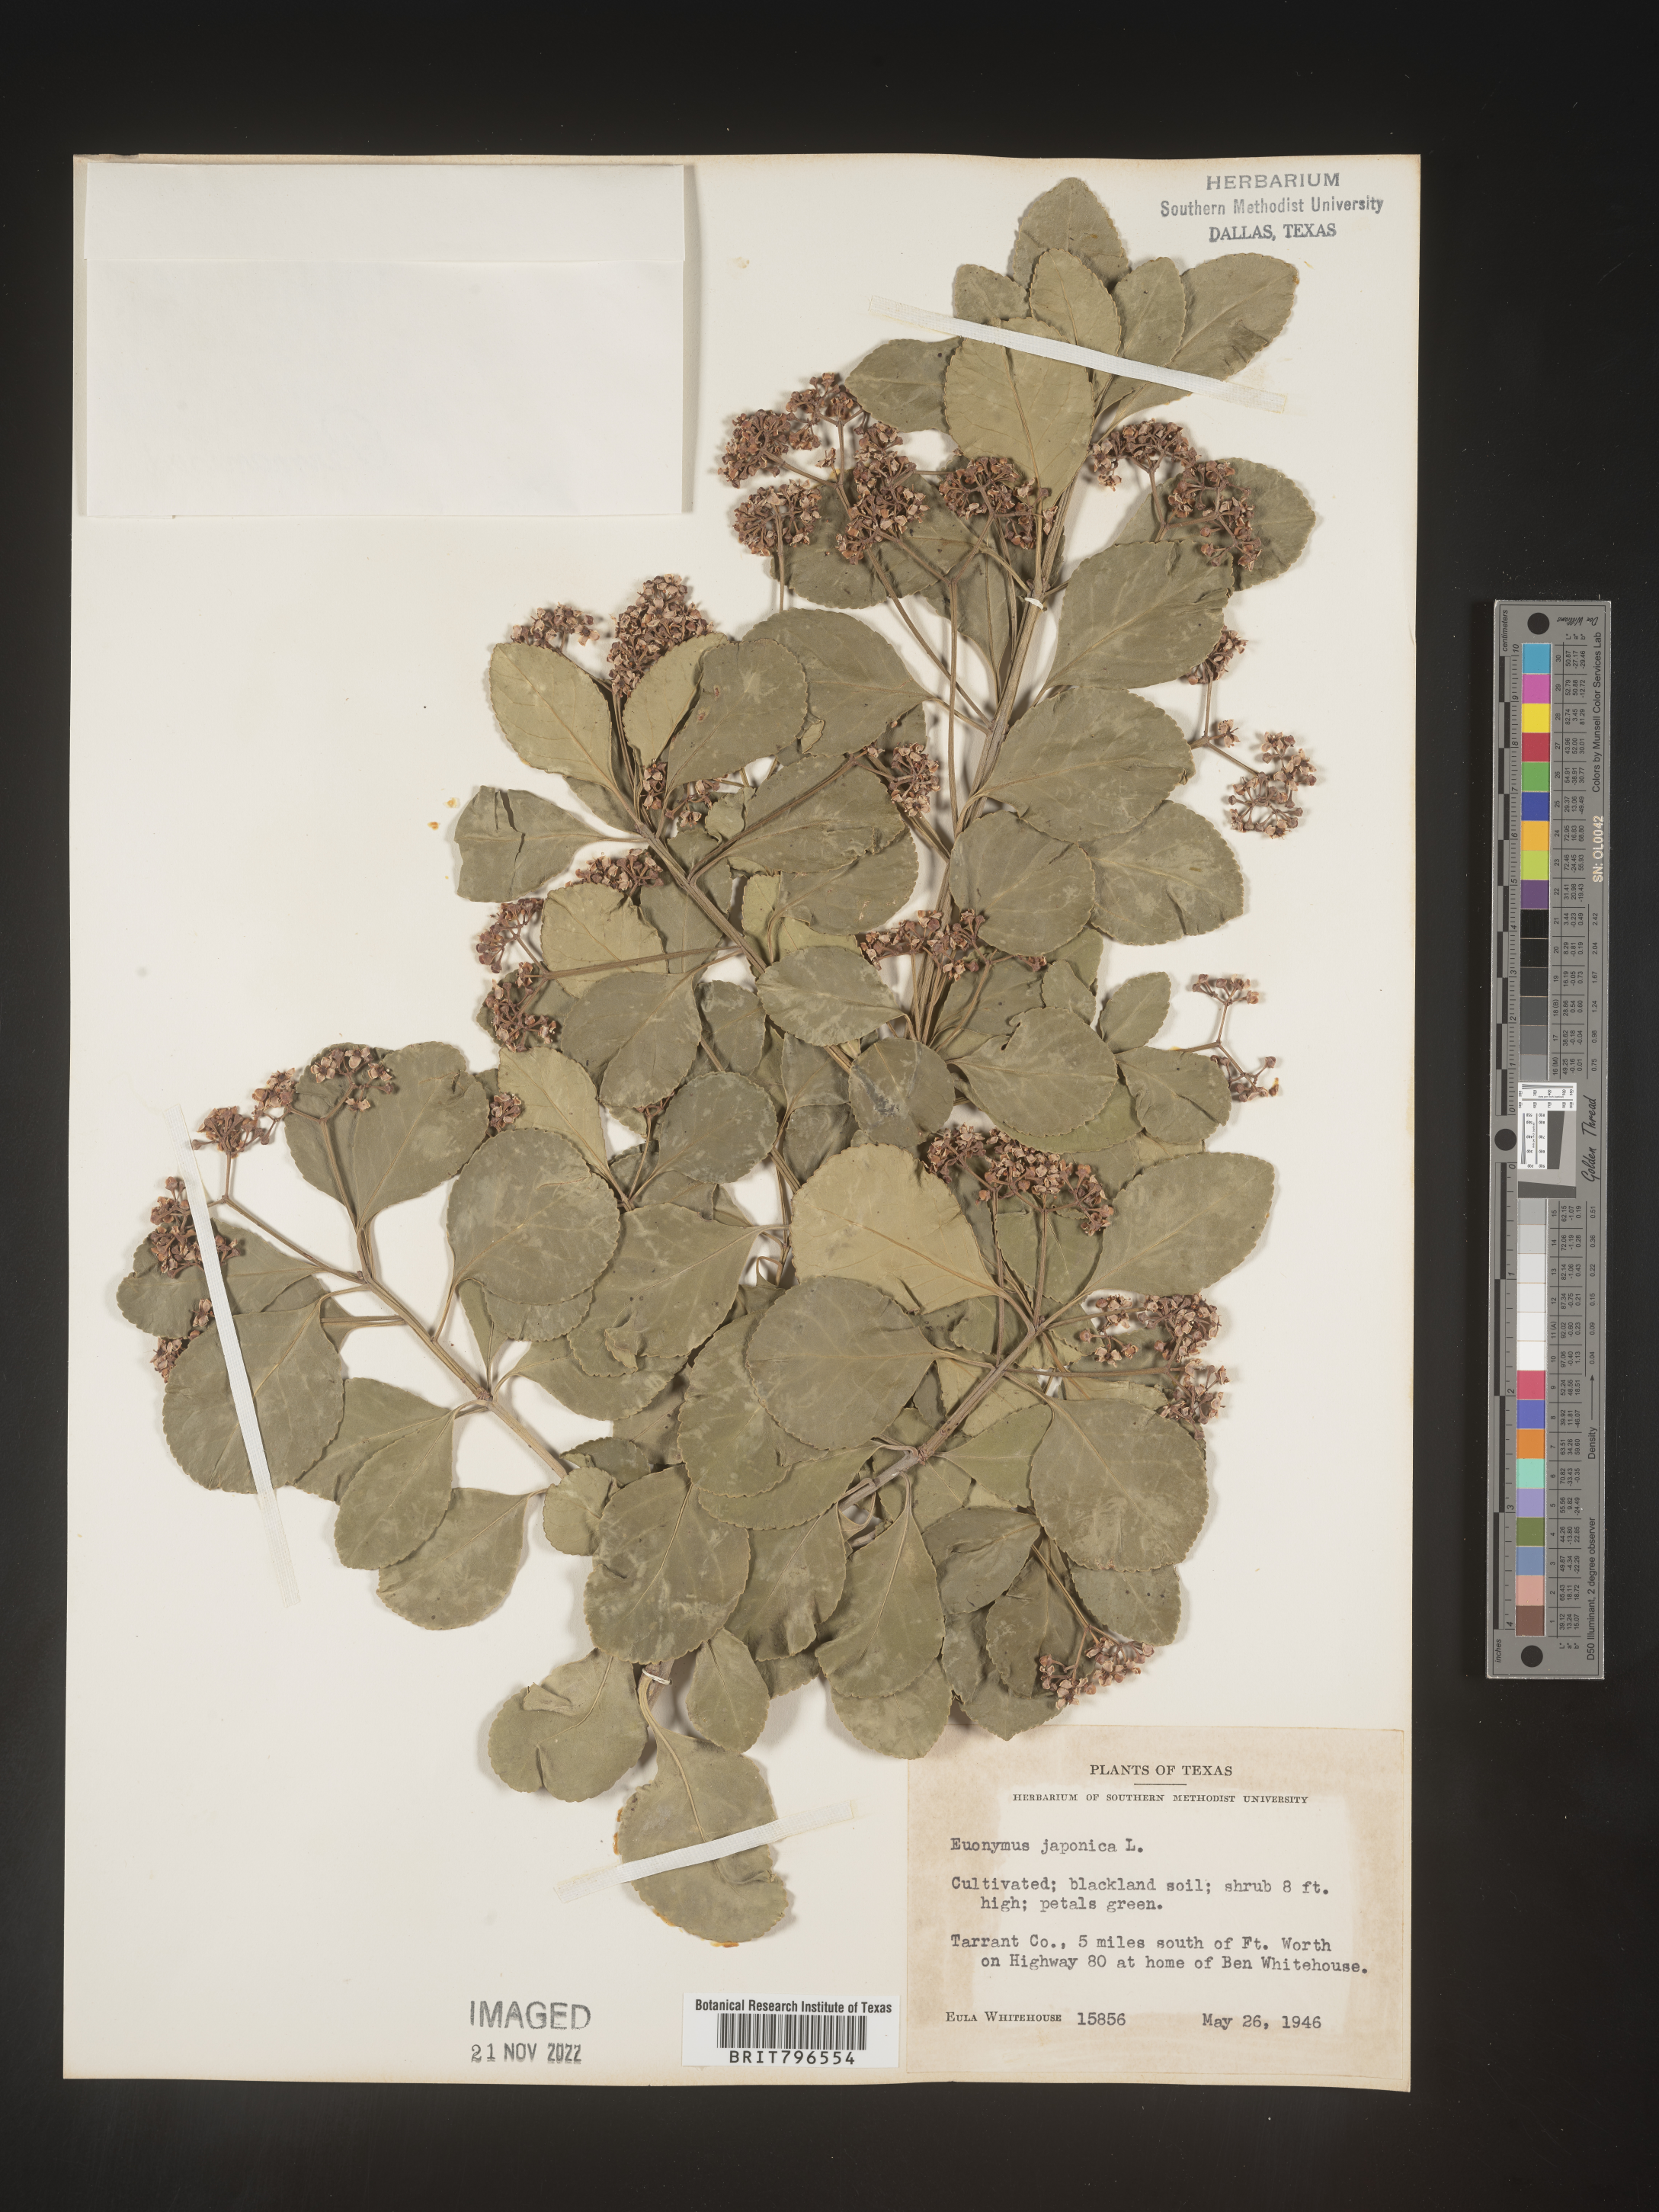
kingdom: Plantae
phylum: Tracheophyta
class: Magnoliopsida
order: Celastrales
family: Celastraceae
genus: Euonymus
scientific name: Euonymus
